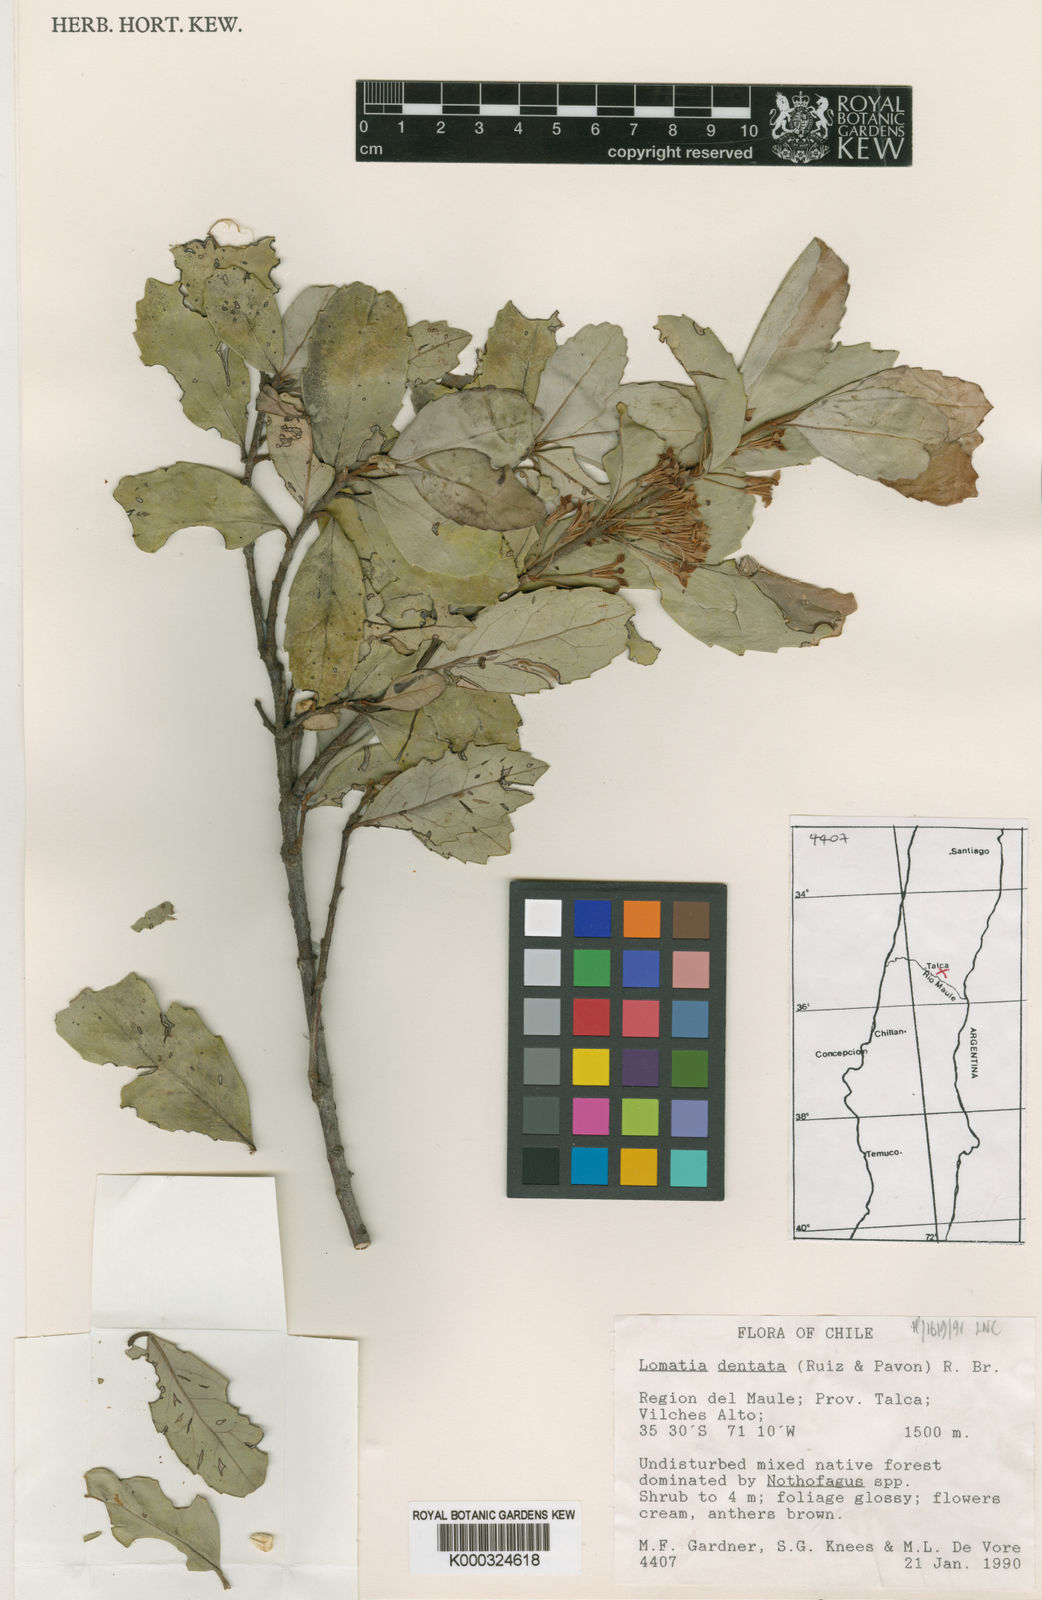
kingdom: Plantae
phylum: Tracheophyta
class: Magnoliopsida
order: Proteales
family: Proteaceae
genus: Lomatia
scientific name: Lomatia dentata
